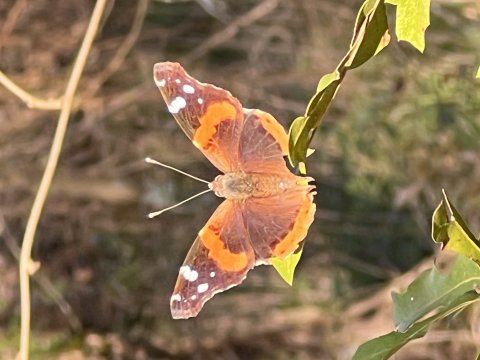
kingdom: Animalia
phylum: Arthropoda
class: Insecta
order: Lepidoptera
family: Nymphalidae
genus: Vanessa
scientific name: Vanessa atalanta
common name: Red Admiral
